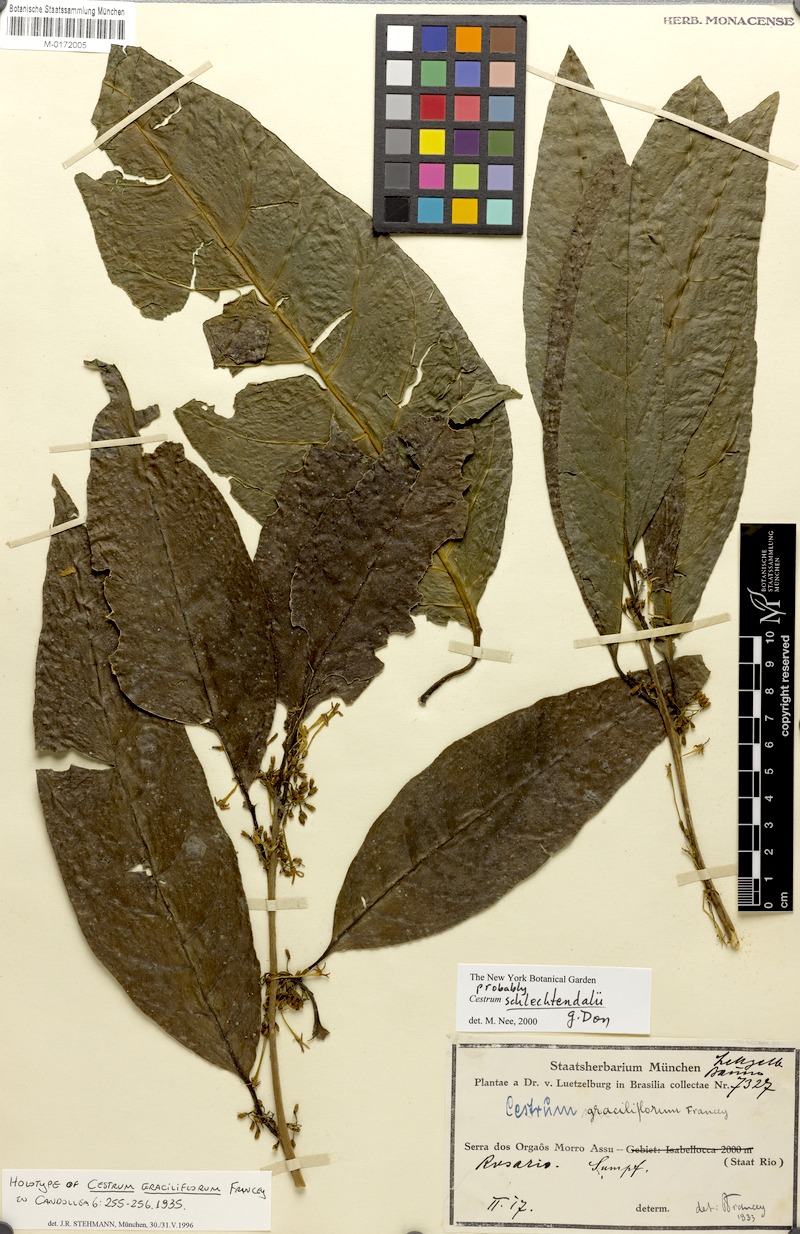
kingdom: Plantae
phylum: Tracheophyta
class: Magnoliopsida
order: Solanales
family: Solanaceae
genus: Cestrum
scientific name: Cestrum schlechtendalii
